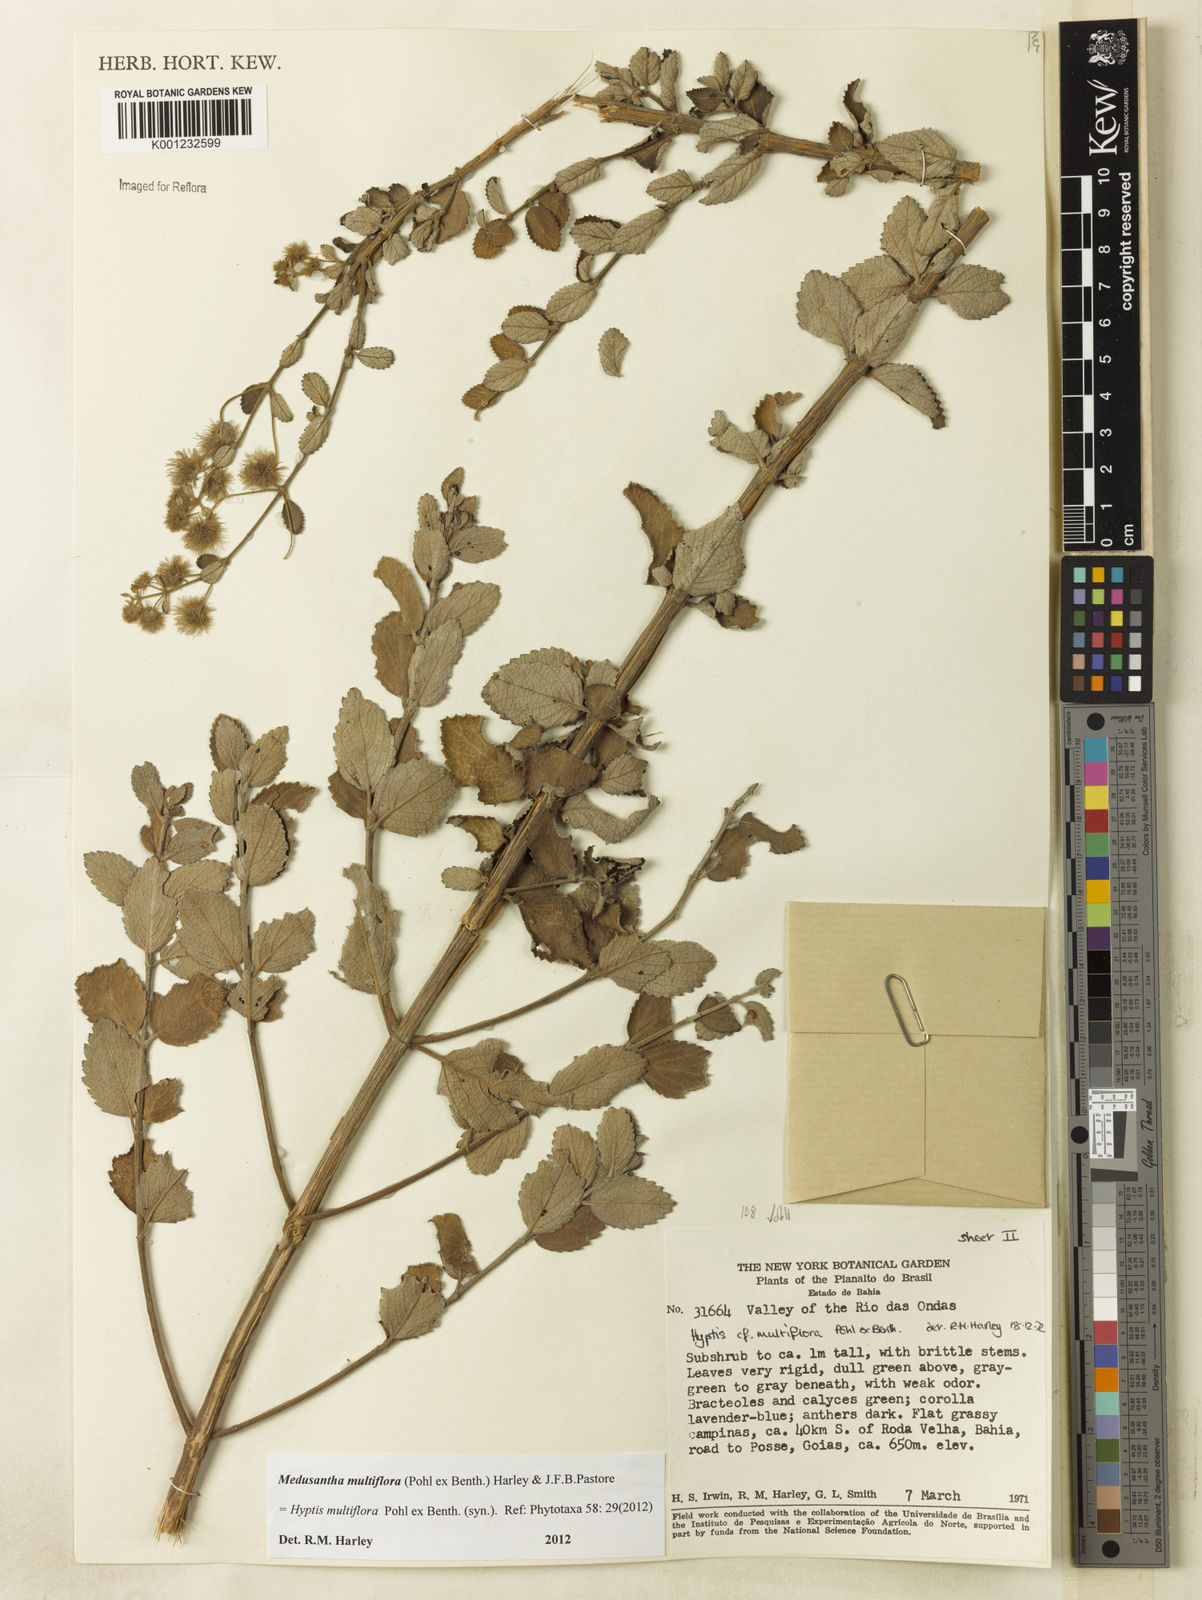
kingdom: Plantae
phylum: Tracheophyta
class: Magnoliopsida
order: Lamiales
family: Lamiaceae
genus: Medusantha
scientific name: Medusantha multiflora
